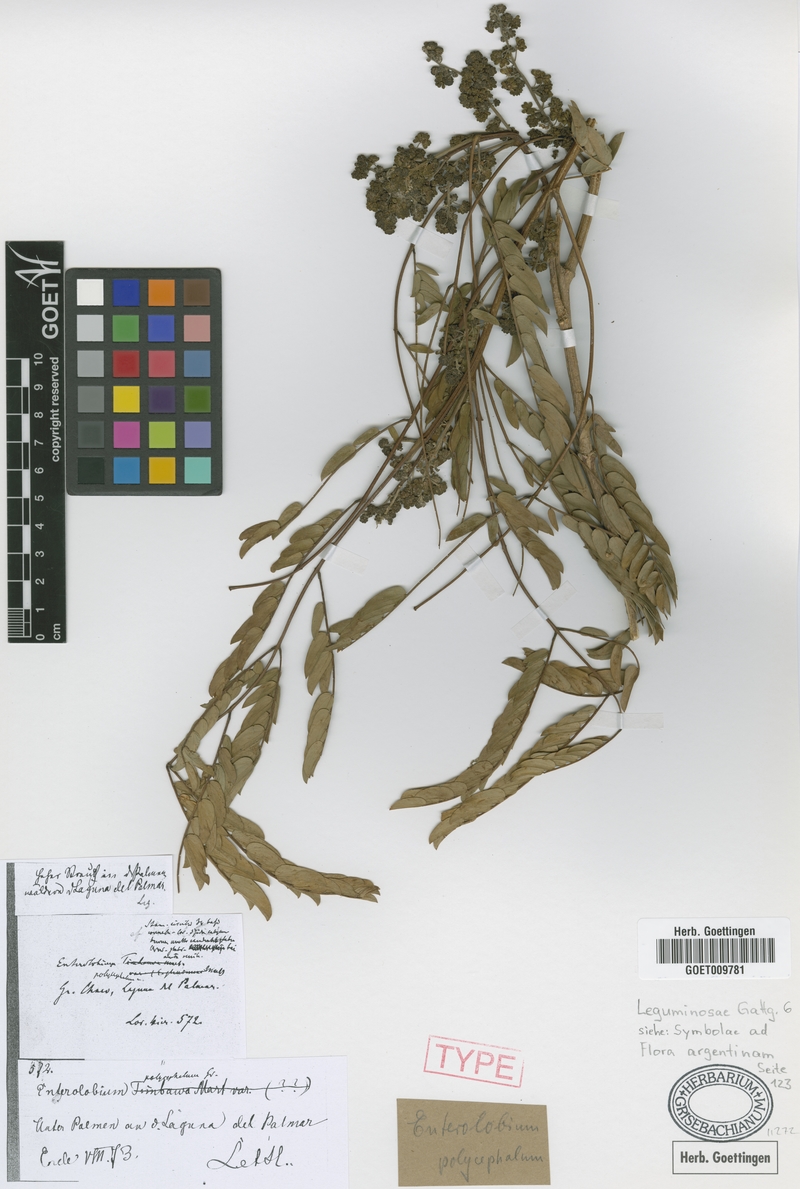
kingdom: Plantae
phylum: Tracheophyta
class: Magnoliopsida
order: Fabales
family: Fabaceae
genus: Albizia
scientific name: Albizia inundata
